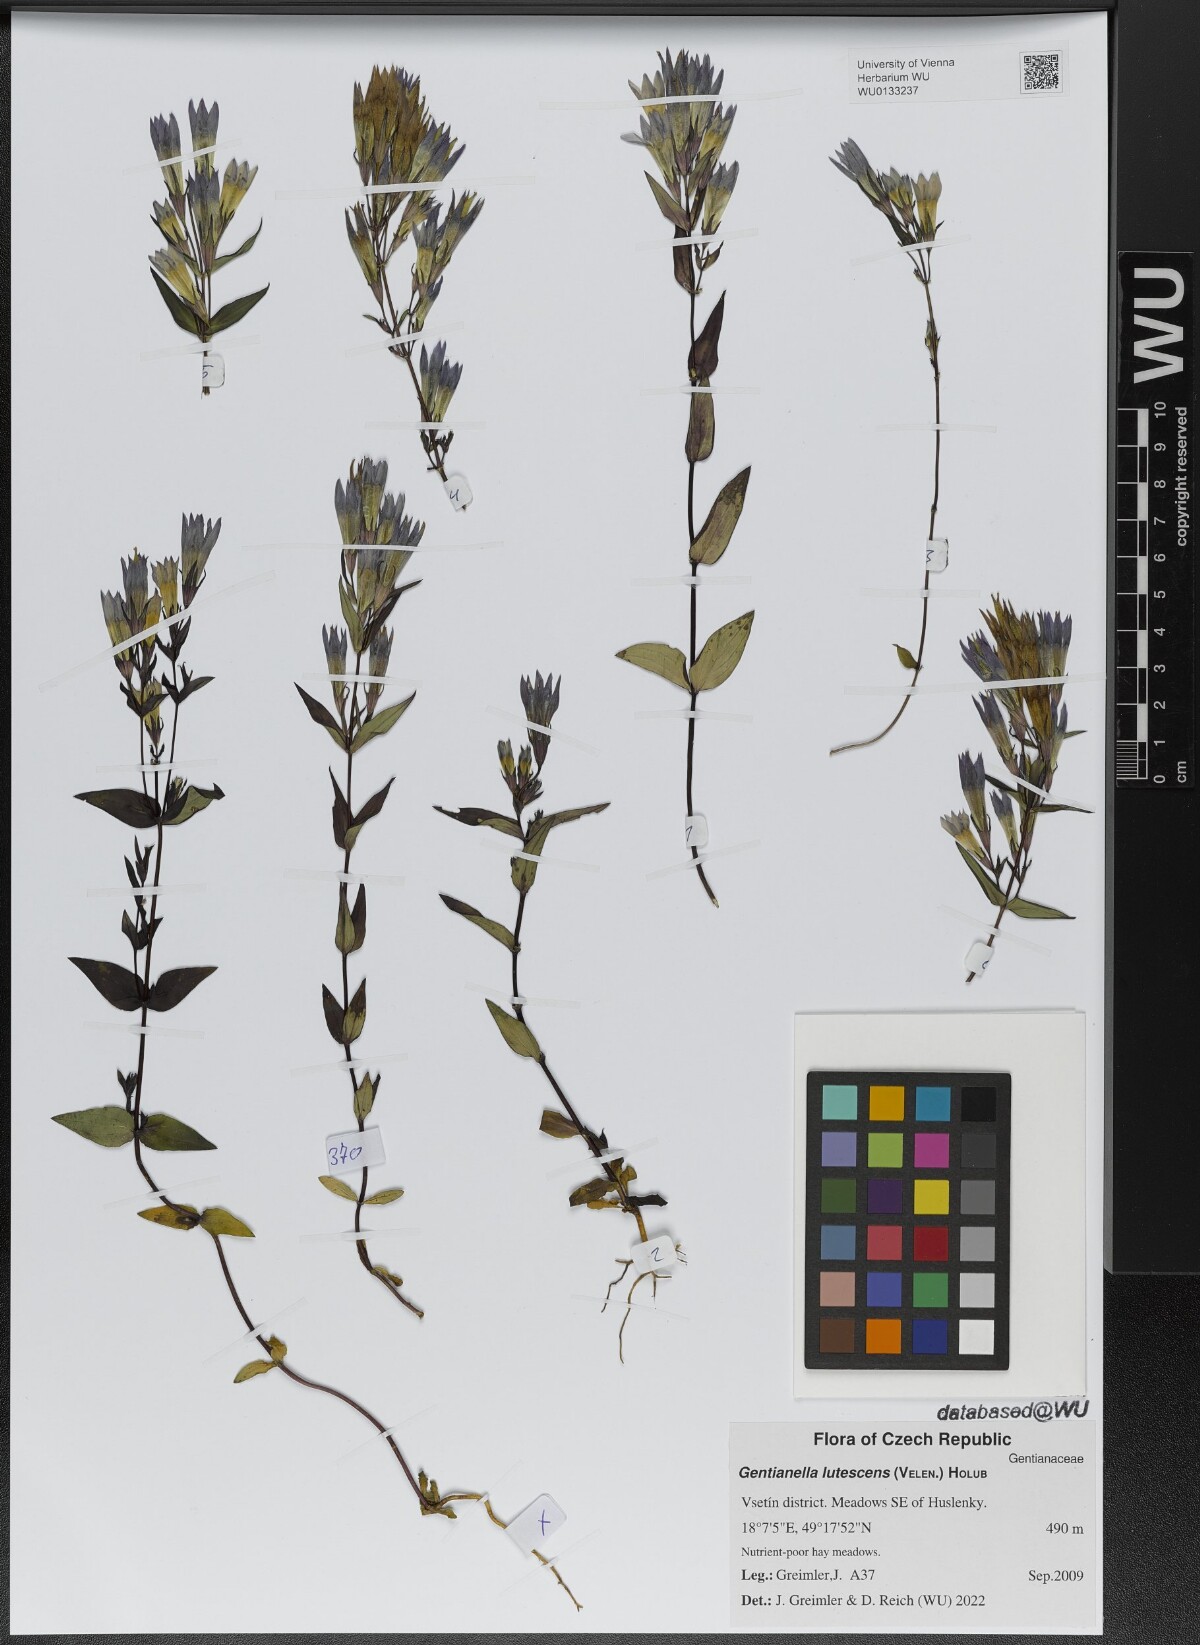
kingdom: Plantae
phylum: Tracheophyta
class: Magnoliopsida
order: Gentianales
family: Gentianaceae
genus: Gentianella
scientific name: Gentianella praecox
